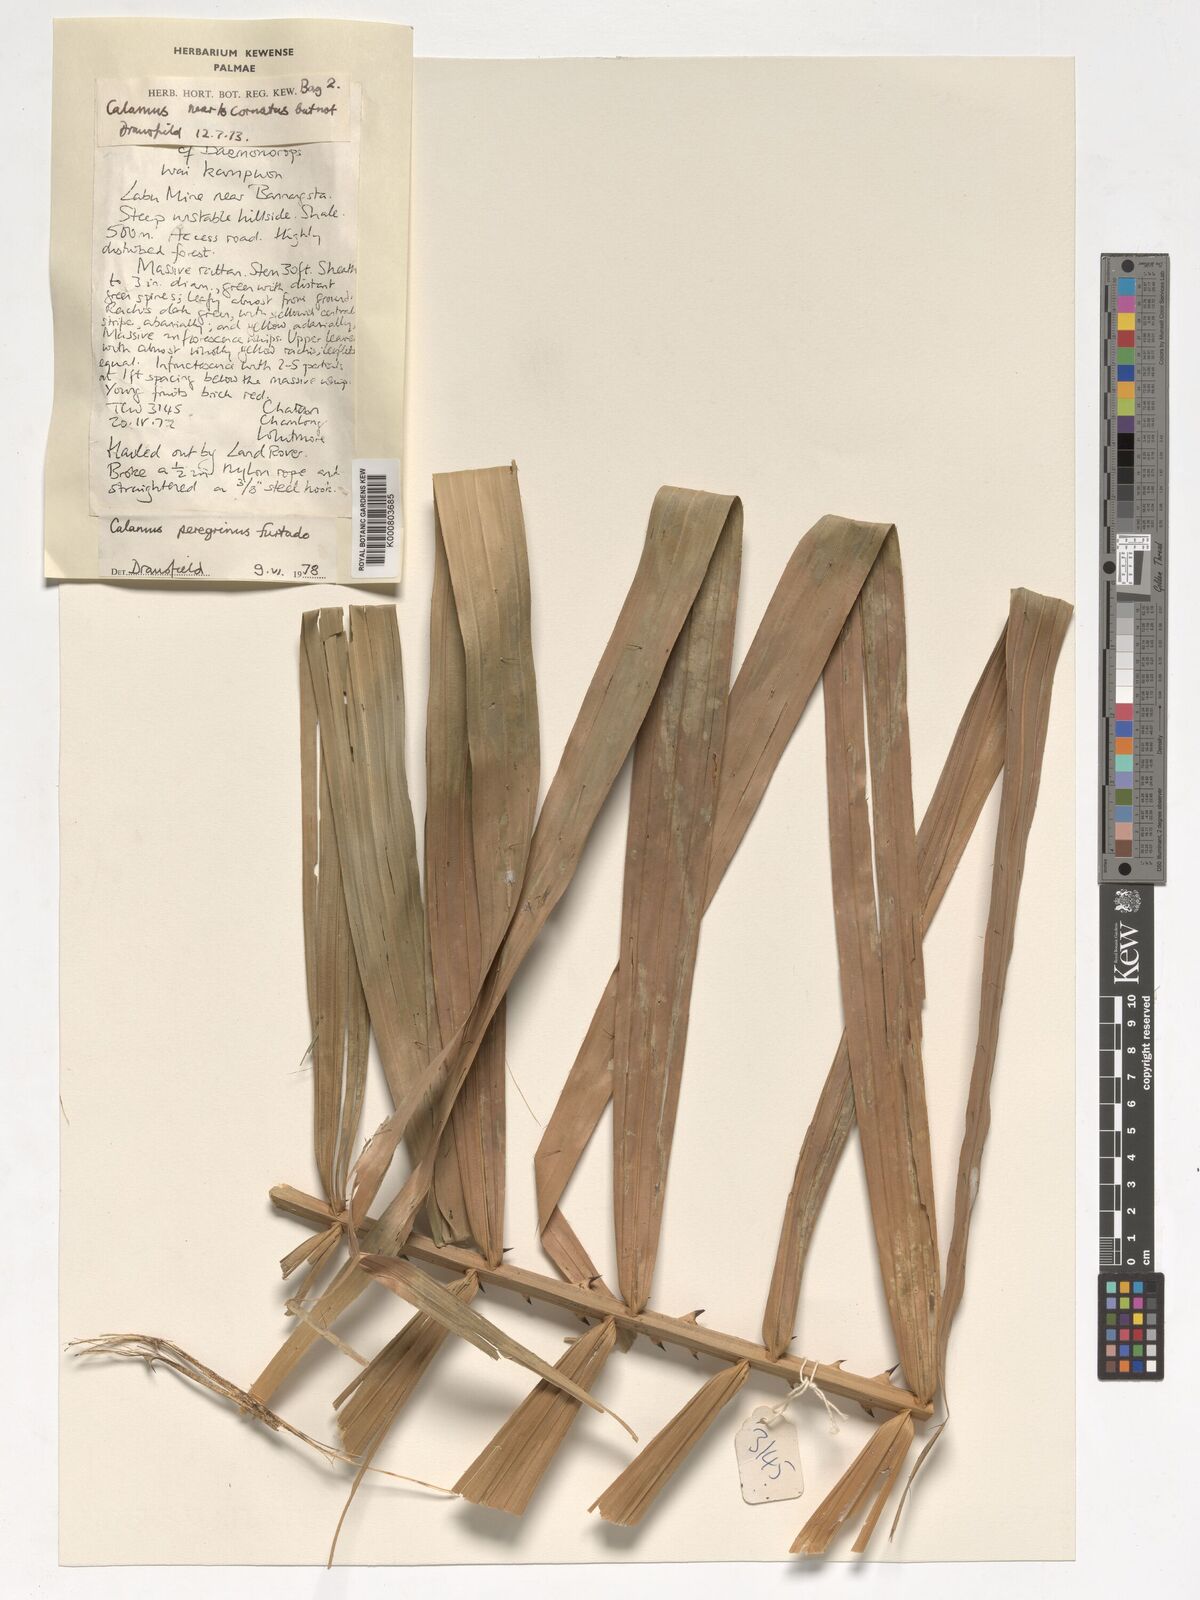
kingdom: Plantae
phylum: Tracheophyta
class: Liliopsida
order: Arecales
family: Arecaceae
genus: Calamus
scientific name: Calamus peregrinus
